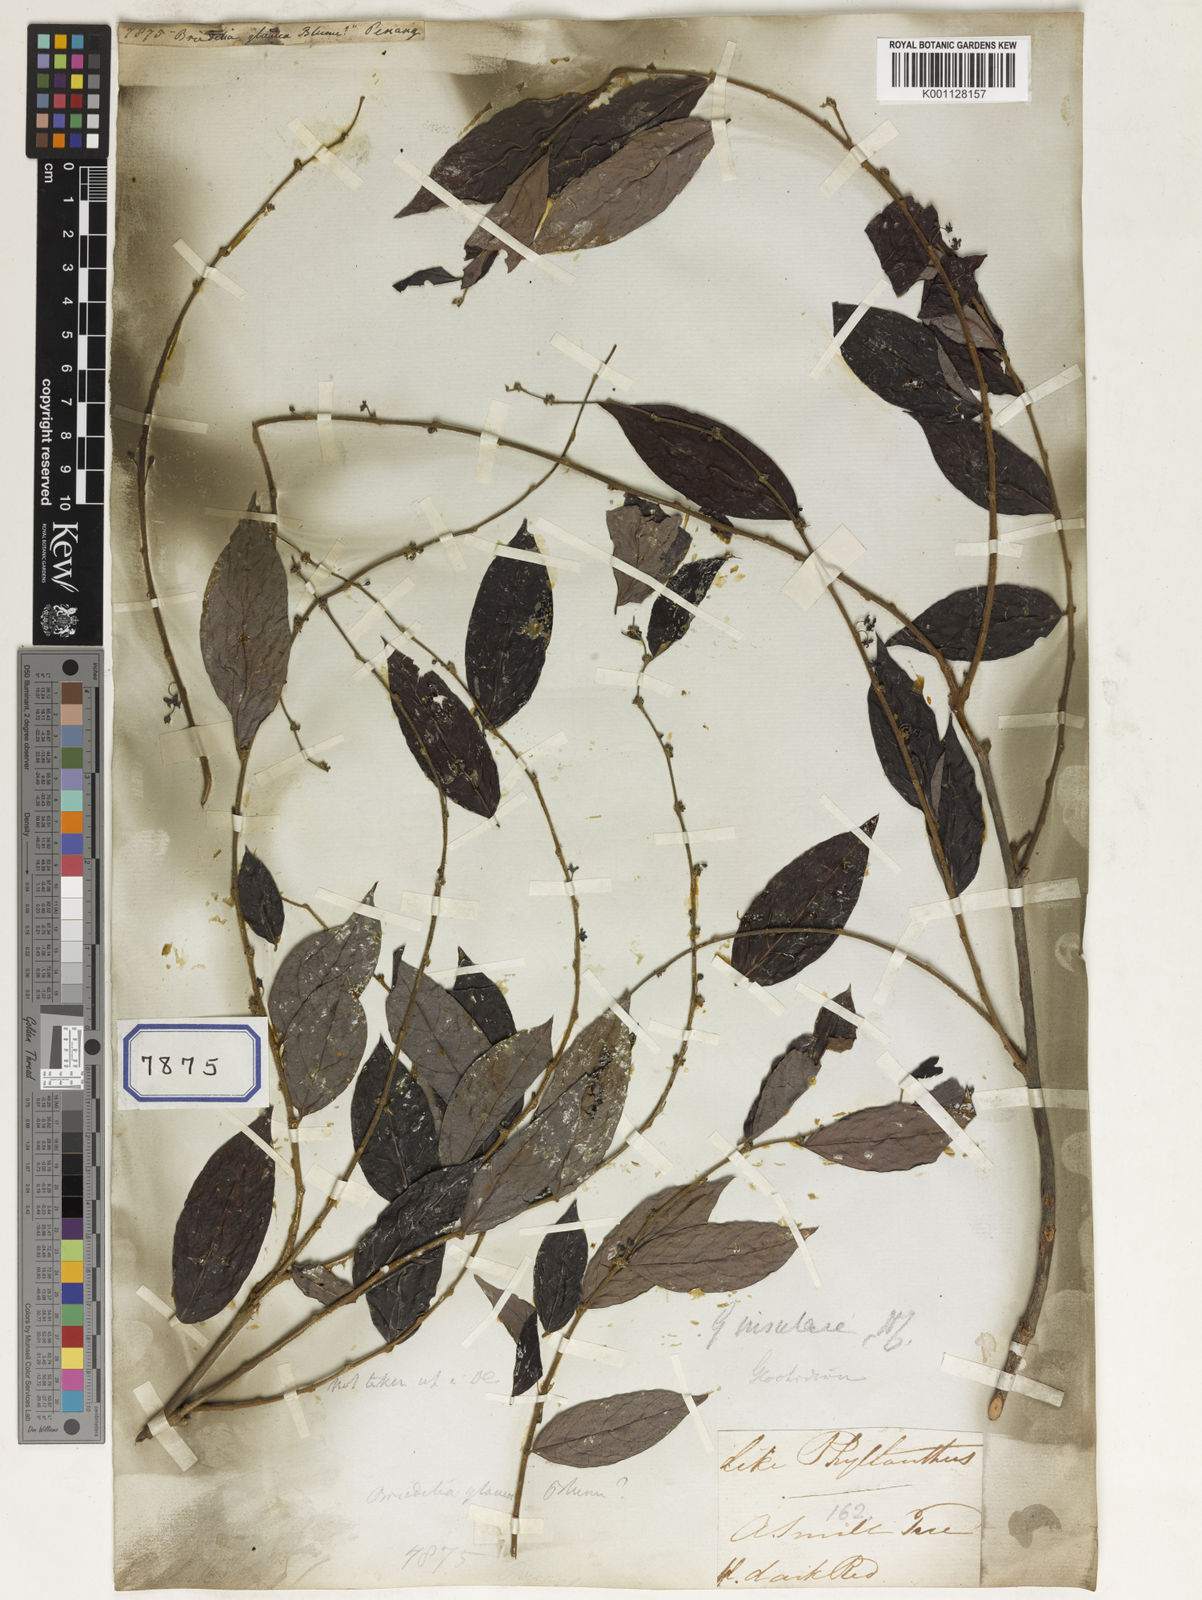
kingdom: Plantae
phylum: Tracheophyta
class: Magnoliopsida
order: Malpighiales
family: Euphorbiaceae
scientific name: Euphorbiaceae
